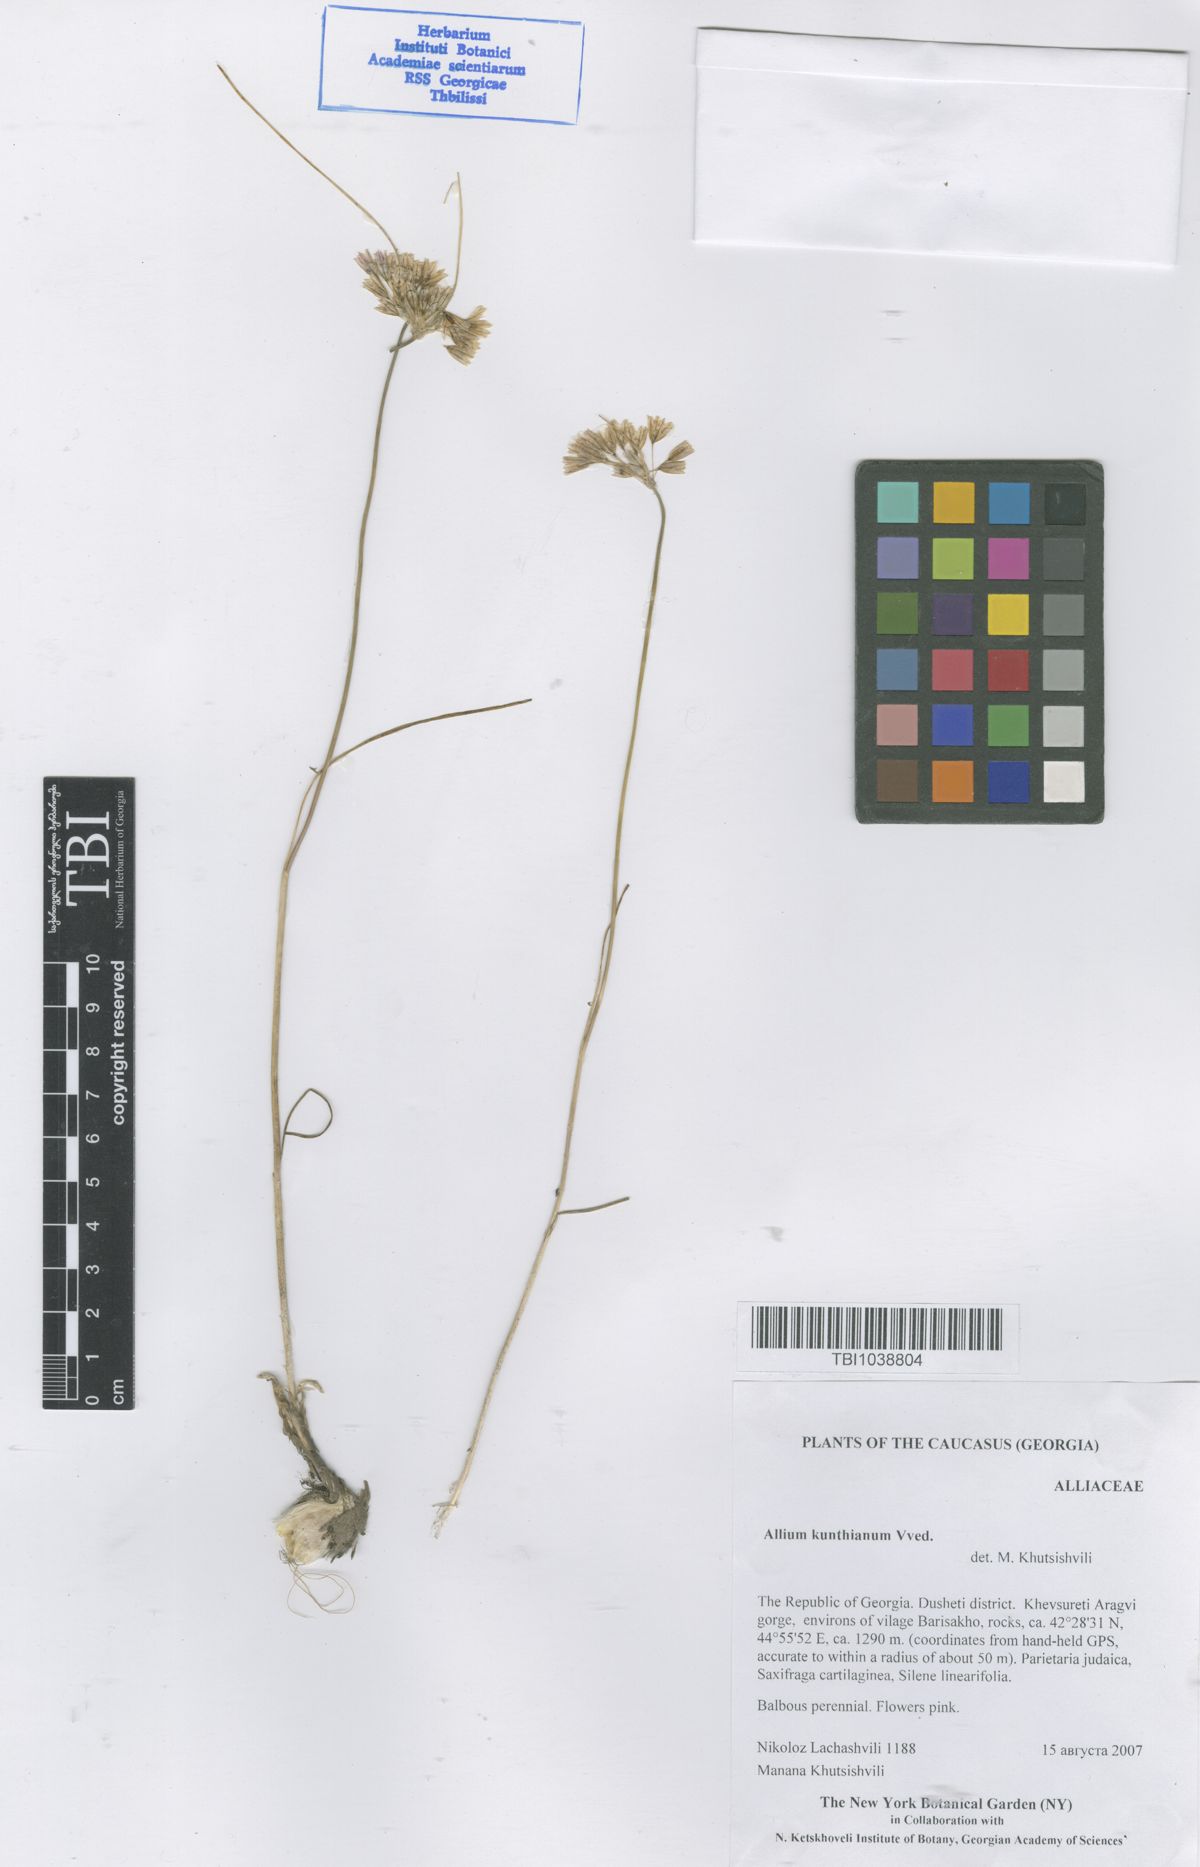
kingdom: Plantae
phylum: Tracheophyta
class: Liliopsida
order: Asparagales
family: Amaryllidaceae
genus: Allium
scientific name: Allium kunthianum
